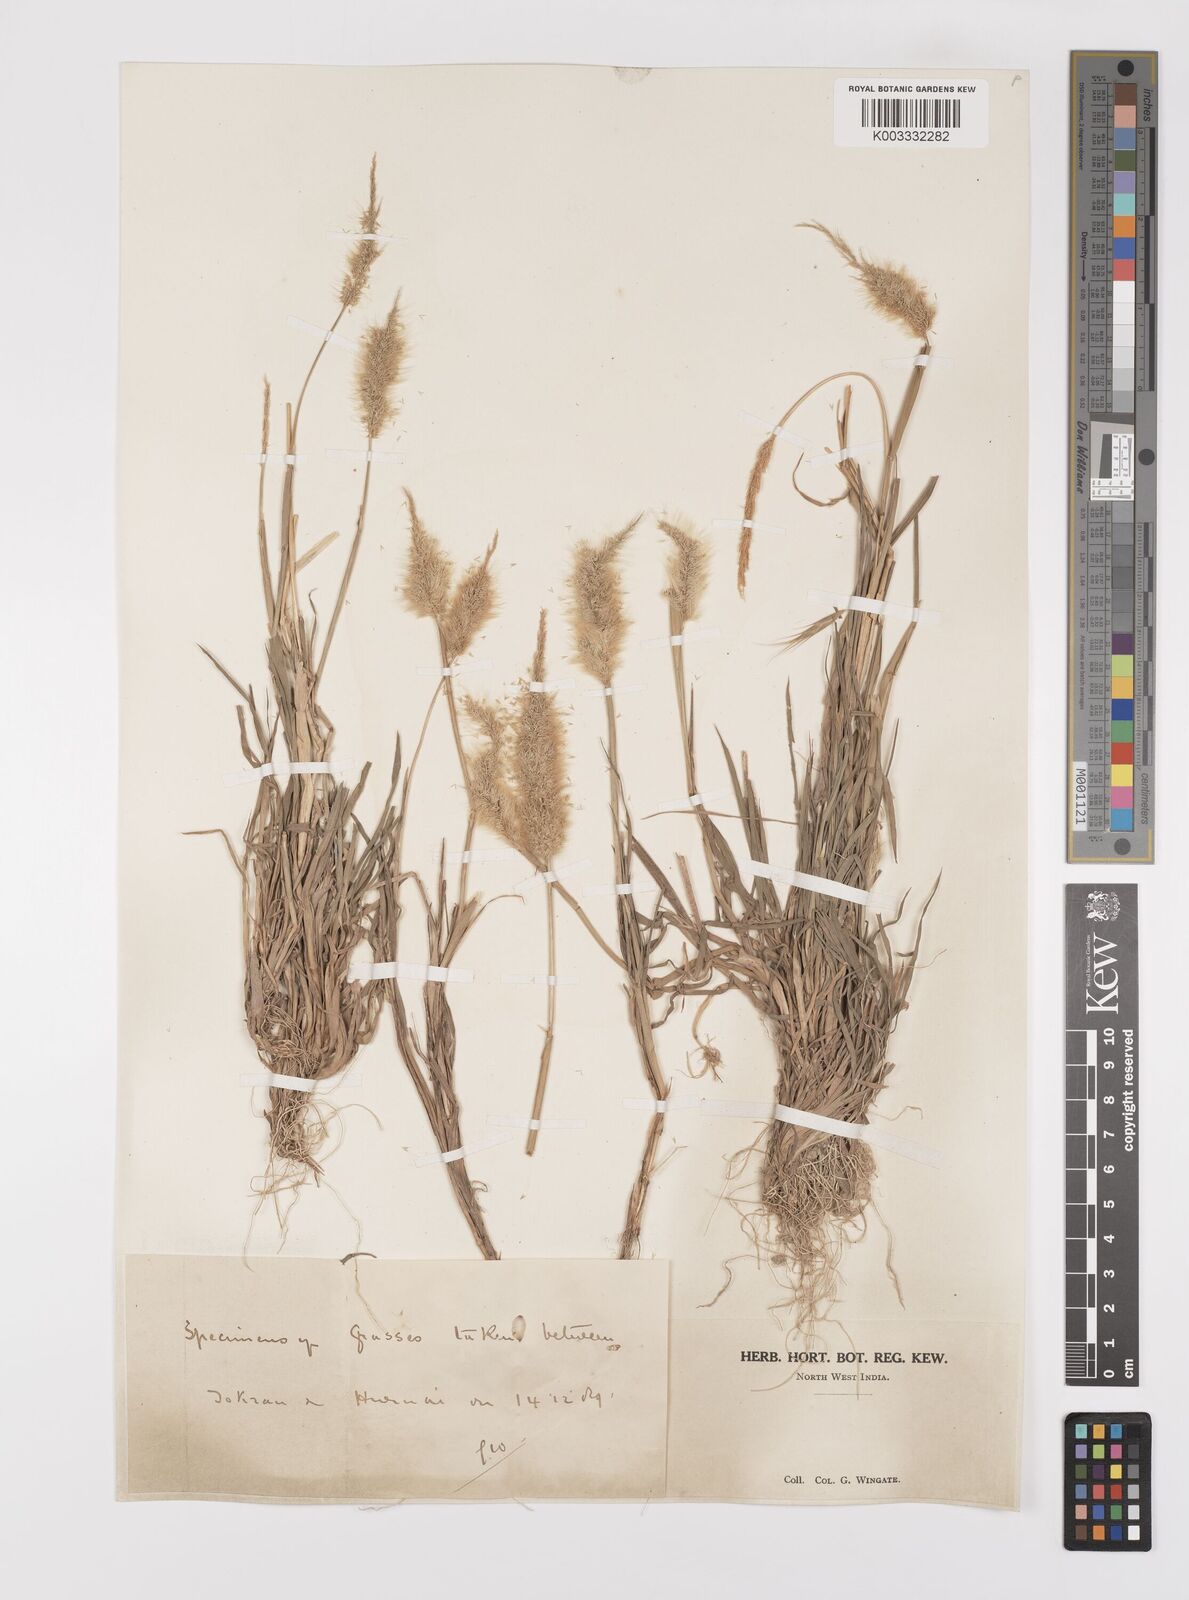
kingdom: Plantae
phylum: Tracheophyta
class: Liliopsida
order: Poales
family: Poaceae
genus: Polypogon
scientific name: Polypogon monspeliensis
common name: Annual rabbitsfoot grass
